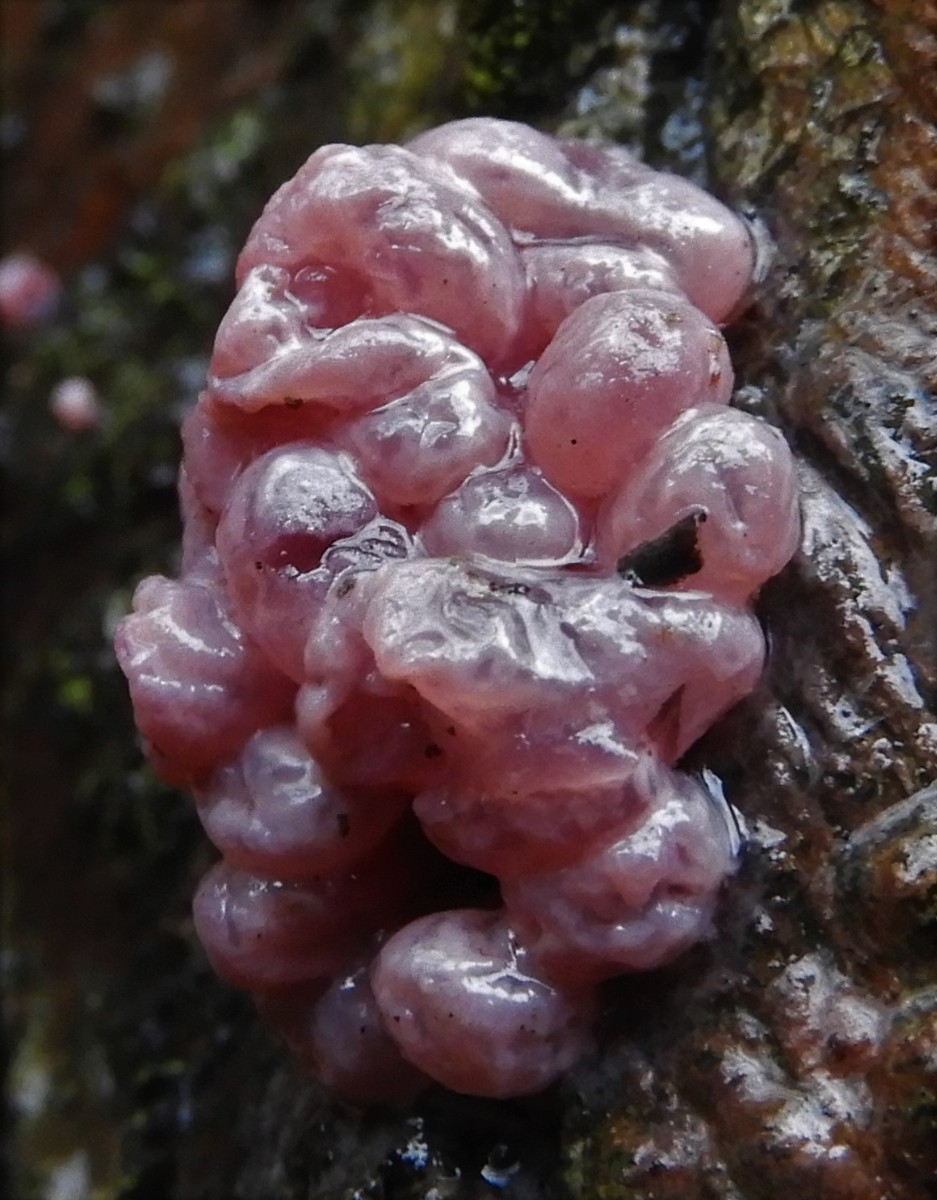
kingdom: Fungi
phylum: Ascomycota
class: Leotiomycetes
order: Helotiales
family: Gelatinodiscaceae
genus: Ascocoryne
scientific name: Ascocoryne sarcoides
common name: rødlilla sejskive
